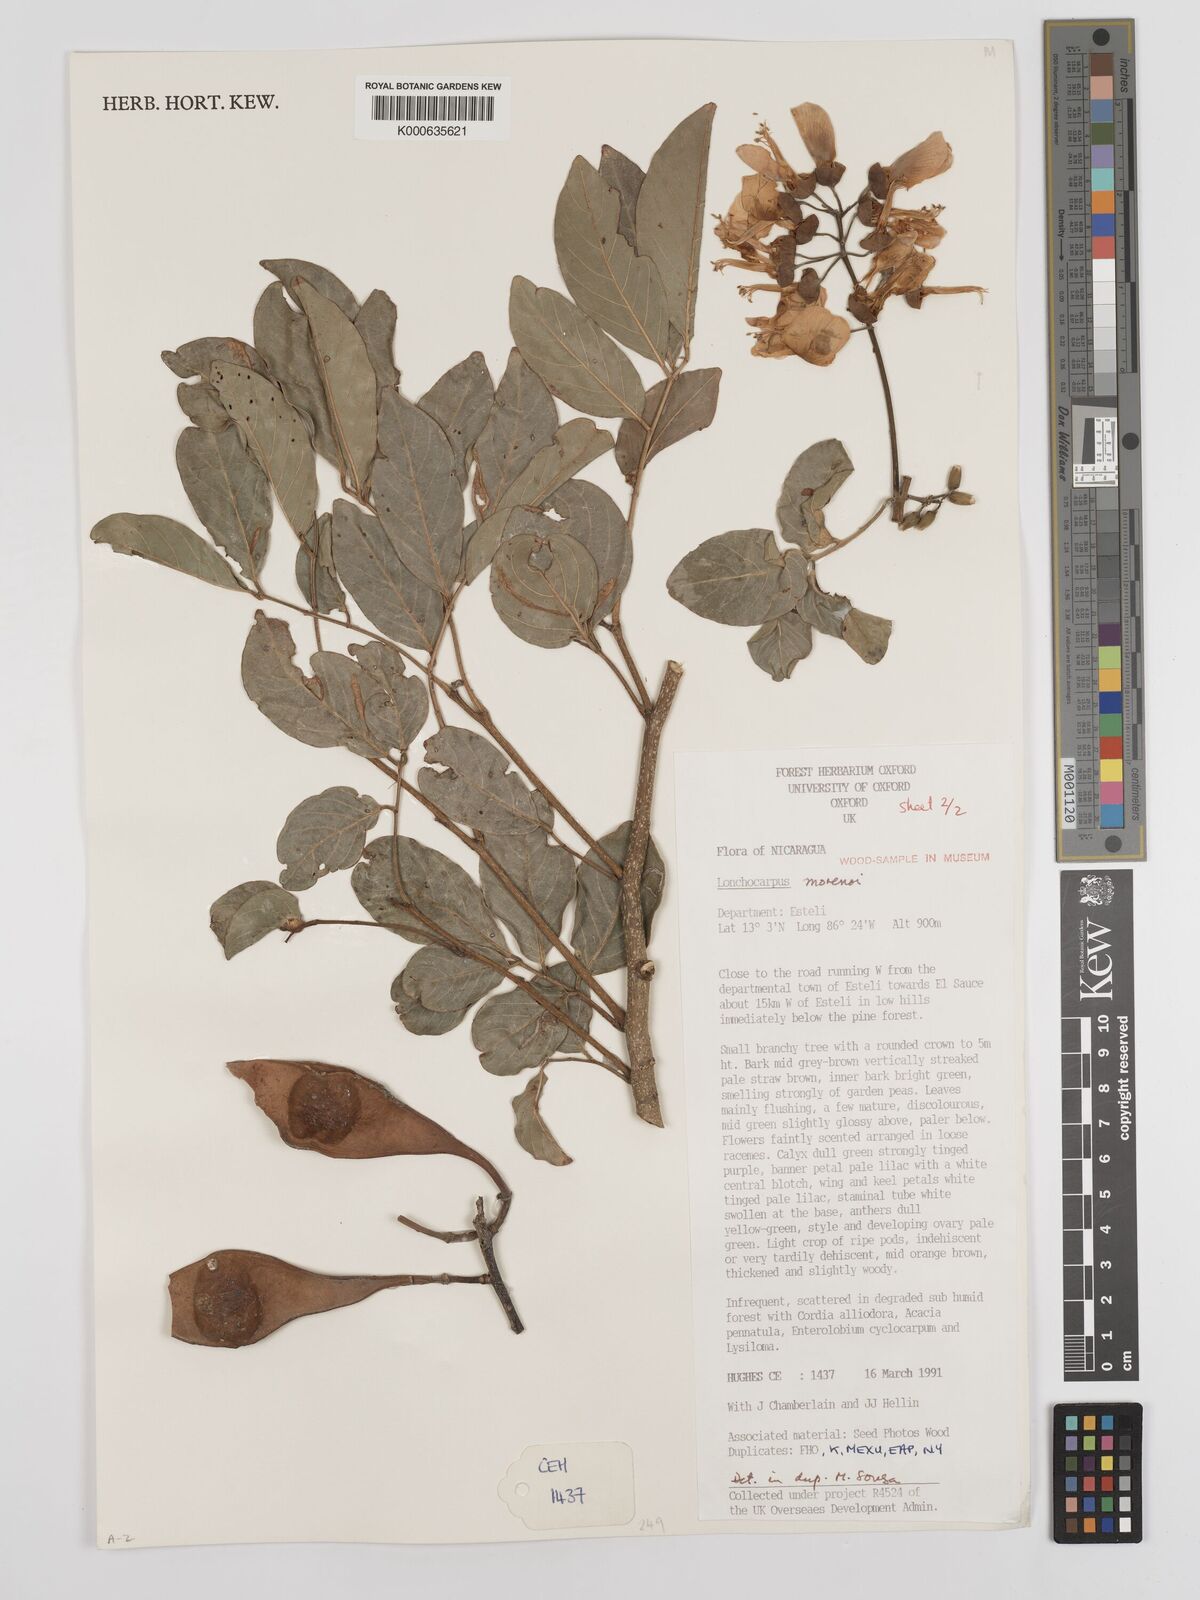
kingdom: Plantae
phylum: Tracheophyta
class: Magnoliopsida
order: Fabales
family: Fabaceae
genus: Lonchocarpus
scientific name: Lonchocarpus morenoi
